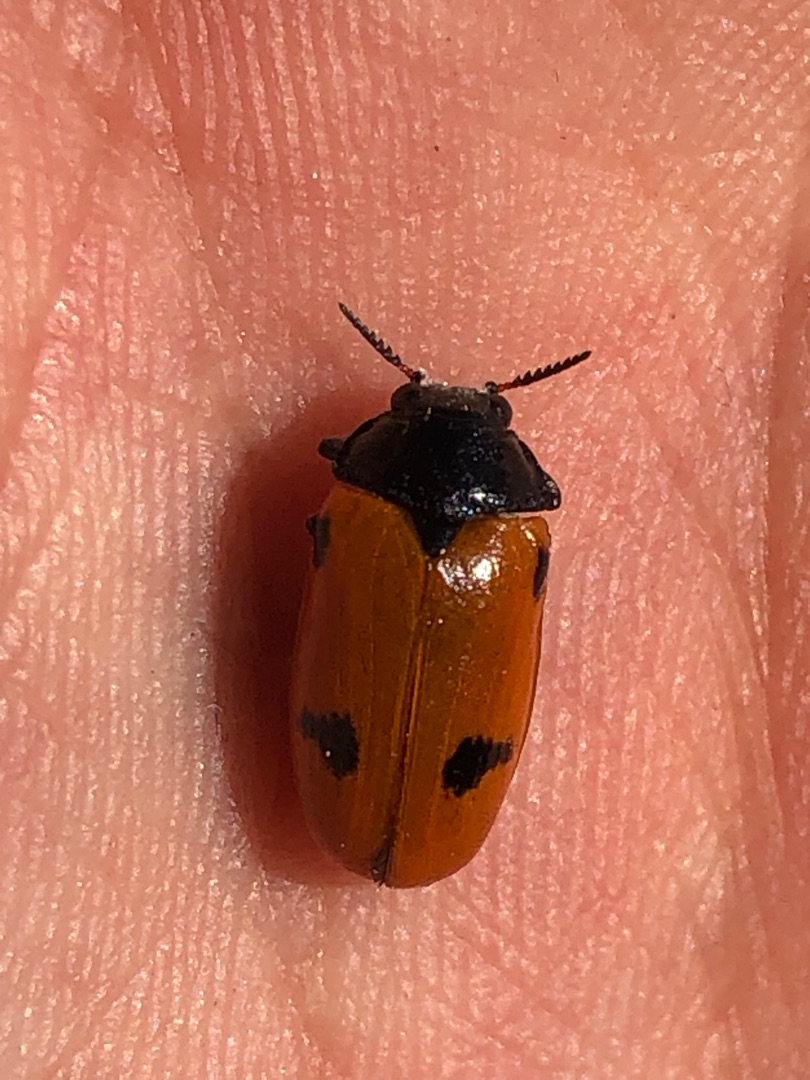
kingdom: Animalia
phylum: Arthropoda
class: Insecta
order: Coleoptera
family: Chrysomelidae
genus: Clytra
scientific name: Clytra quadripunctata
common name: Myrebladbille
